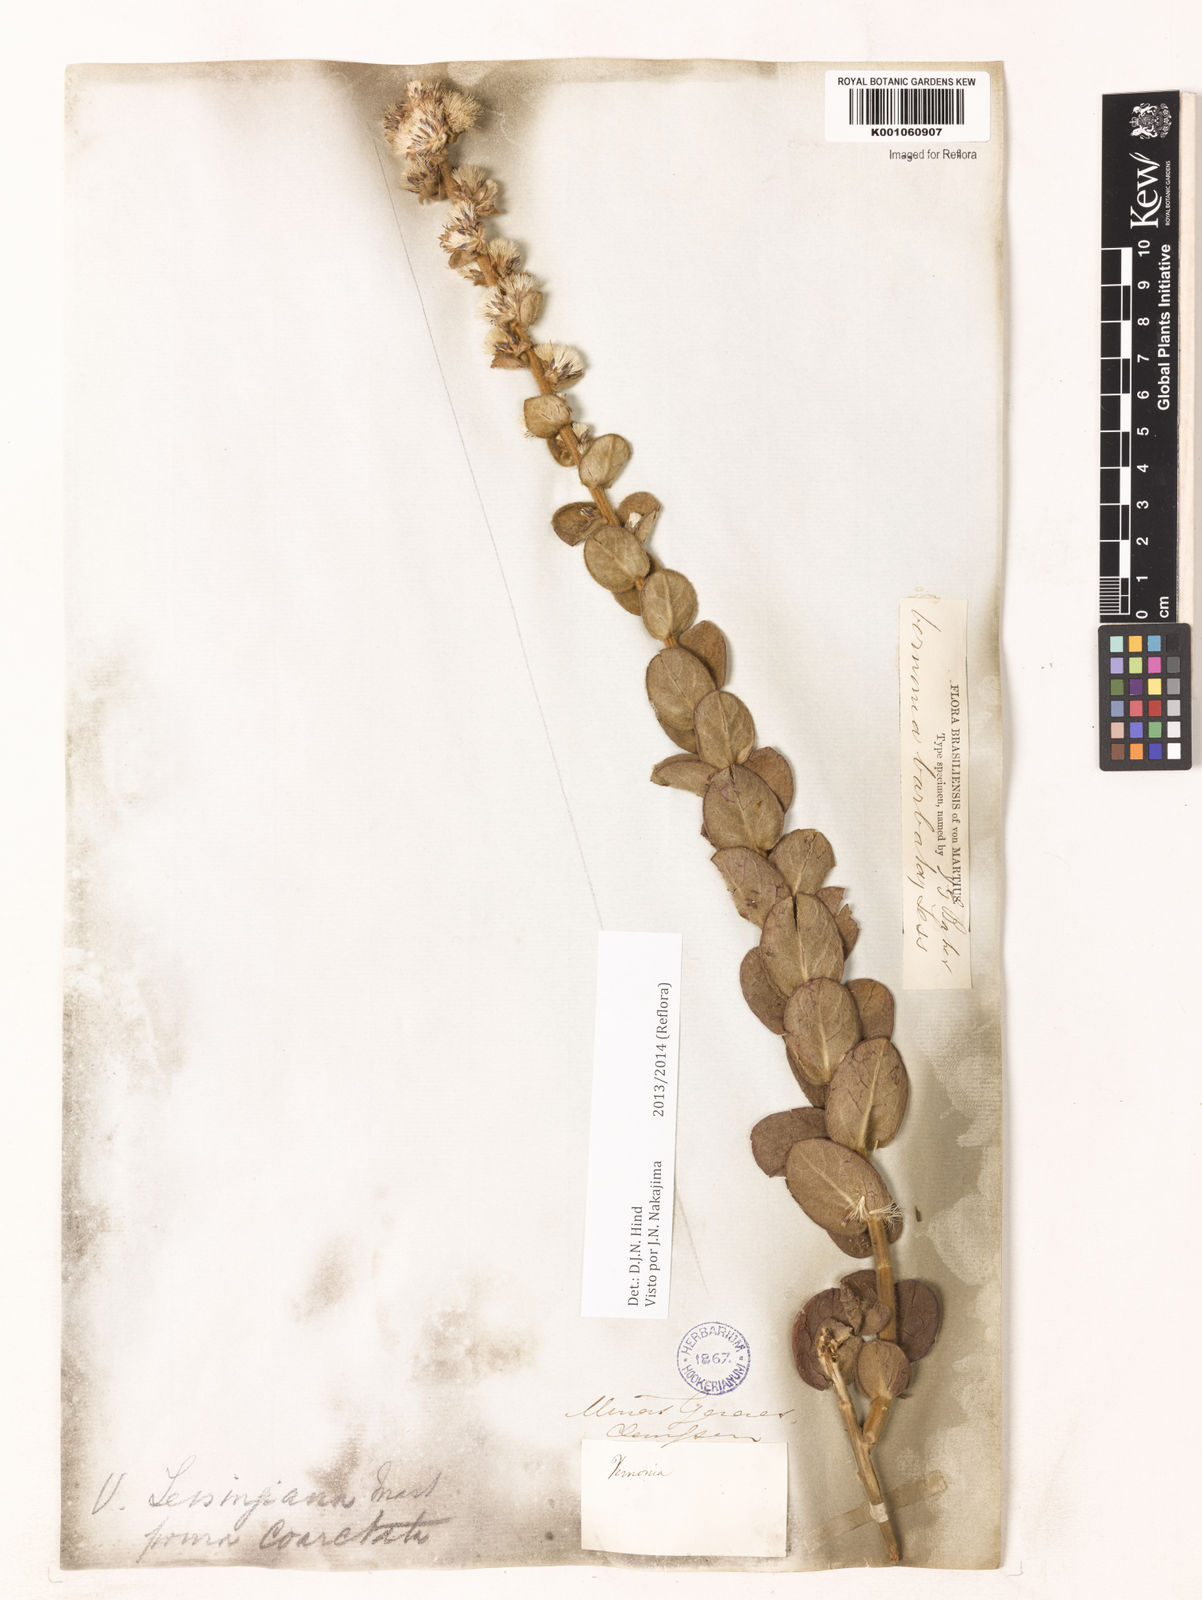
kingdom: Plantae
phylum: Tracheophyta
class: Magnoliopsida
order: Asterales
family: Asteraceae
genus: Lepidaploa
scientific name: Lepidaploa barbata
